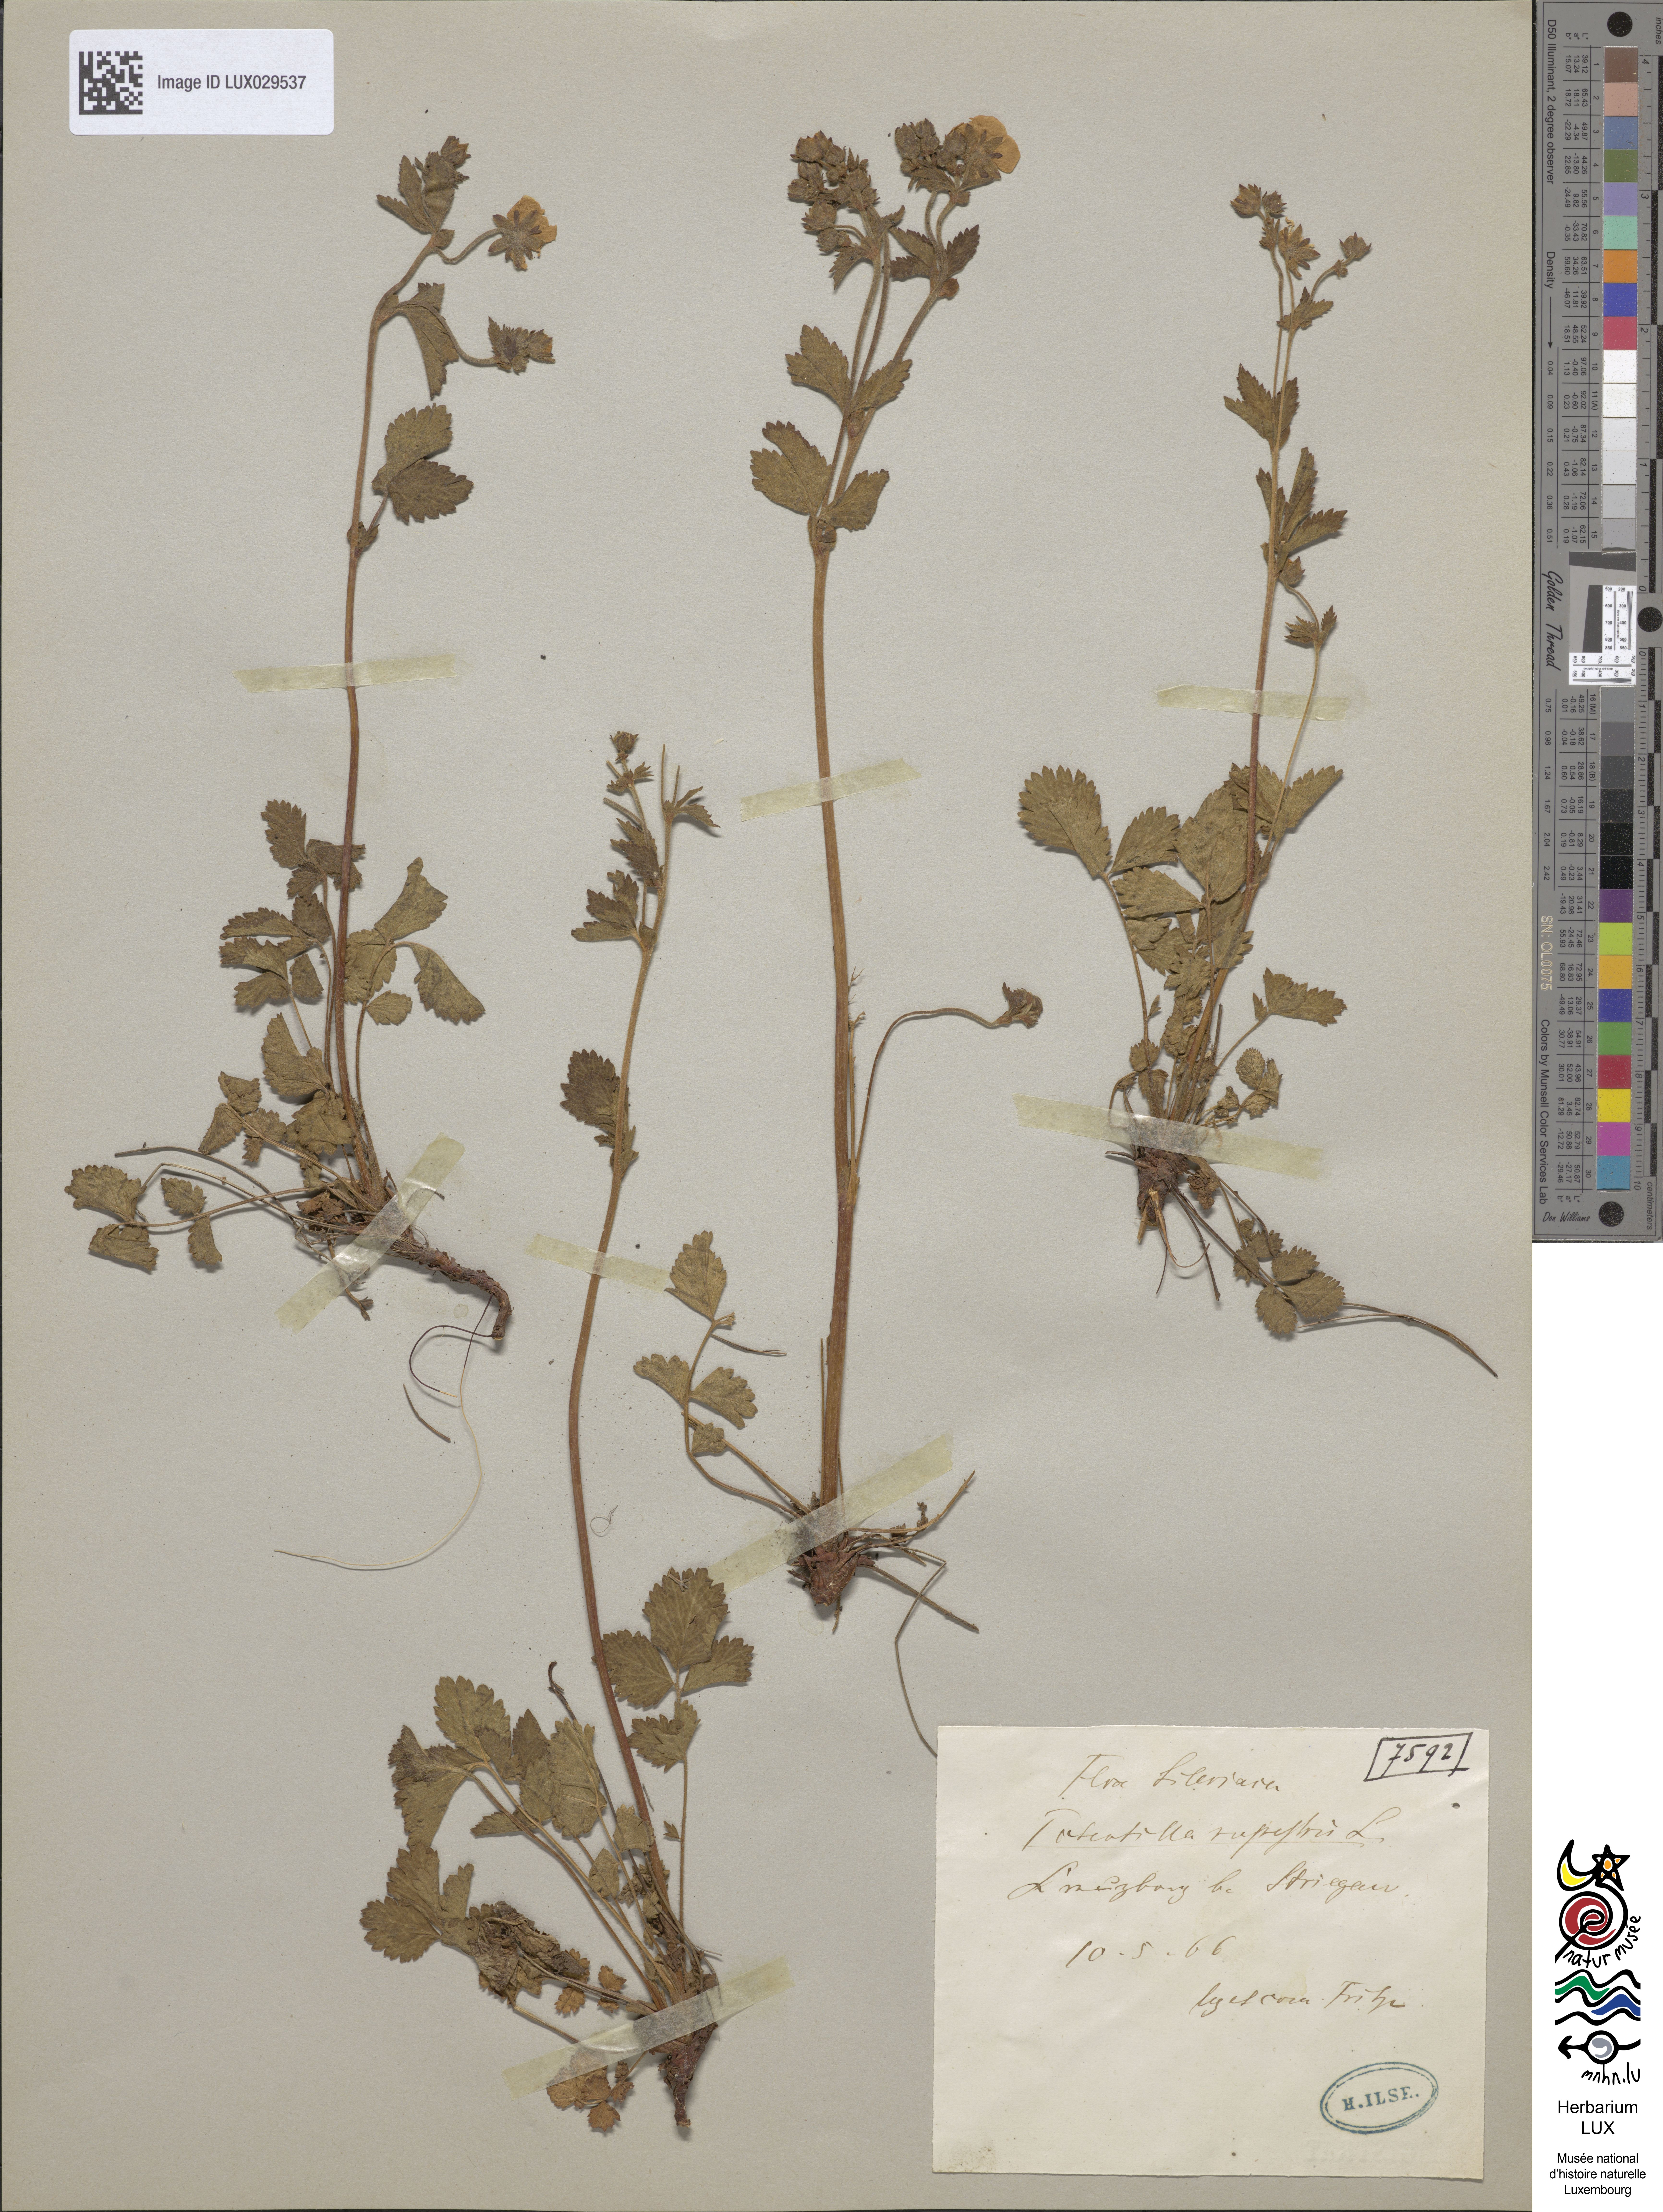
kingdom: Plantae
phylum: Tracheophyta
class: Magnoliopsida
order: Rosales
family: Rosaceae
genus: Drymocallis
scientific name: Drymocallis rupestris
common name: Rock cinquefoil
